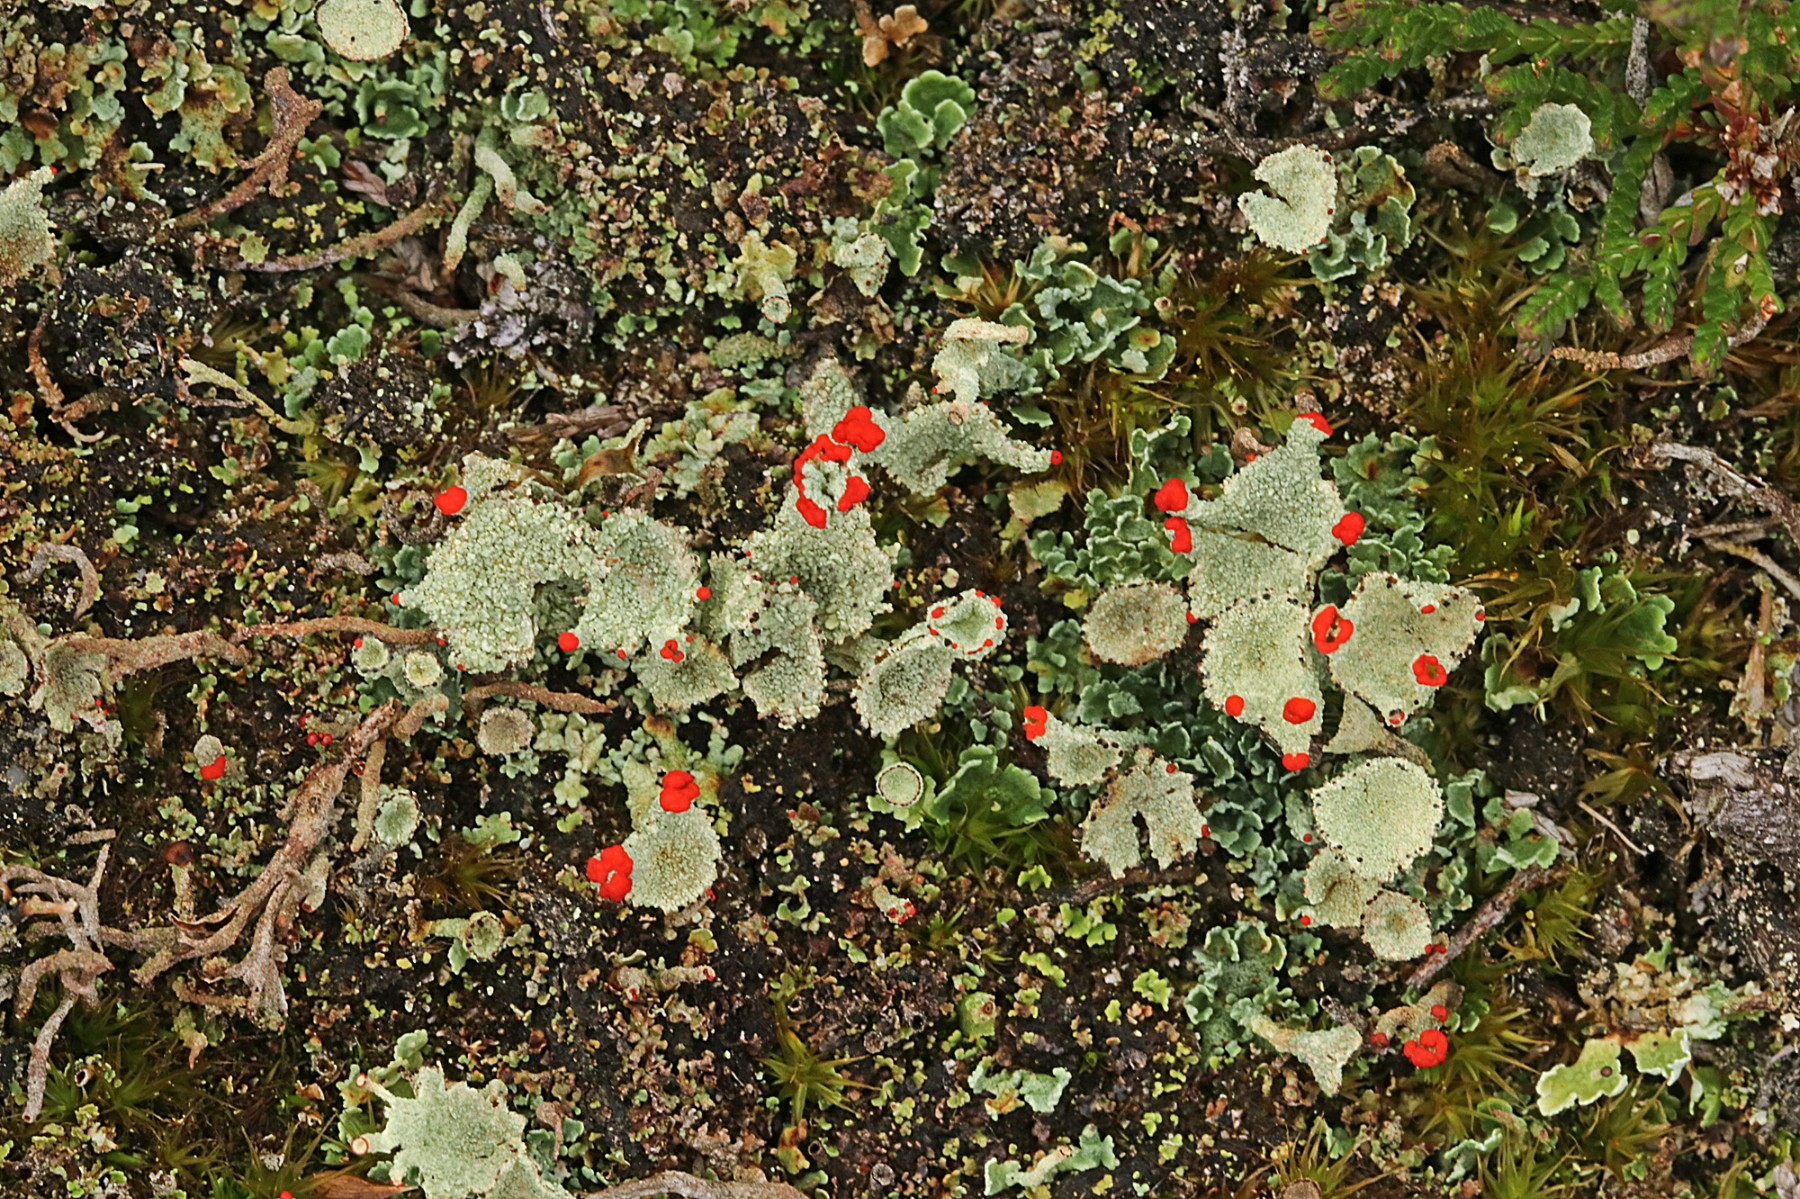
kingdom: Fungi
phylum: Ascomycota
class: Lecanoromycetes
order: Lecanorales
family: Cladoniaceae
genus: Cladonia
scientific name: Cladonia diversa
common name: rød bægerlav
